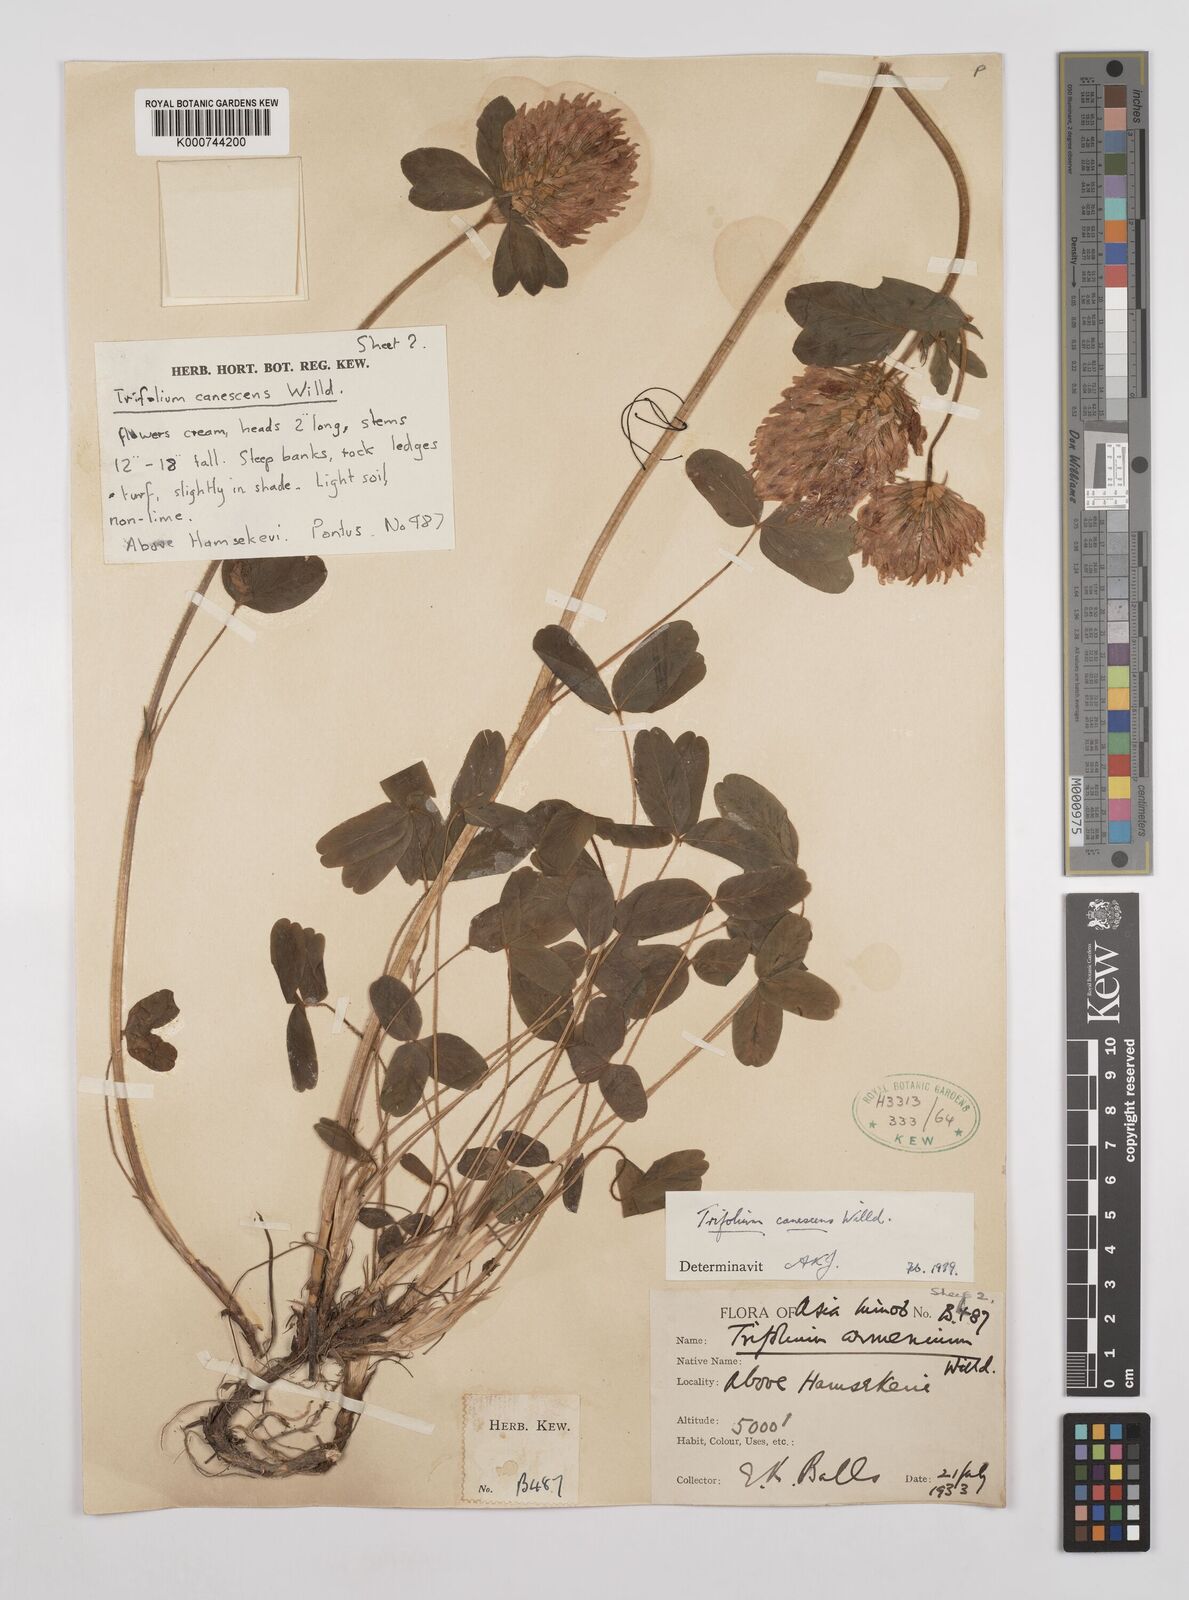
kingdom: Plantae
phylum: Tracheophyta
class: Magnoliopsida
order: Fabales
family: Fabaceae
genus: Trifolium
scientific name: Trifolium canescens
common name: Graying clover
